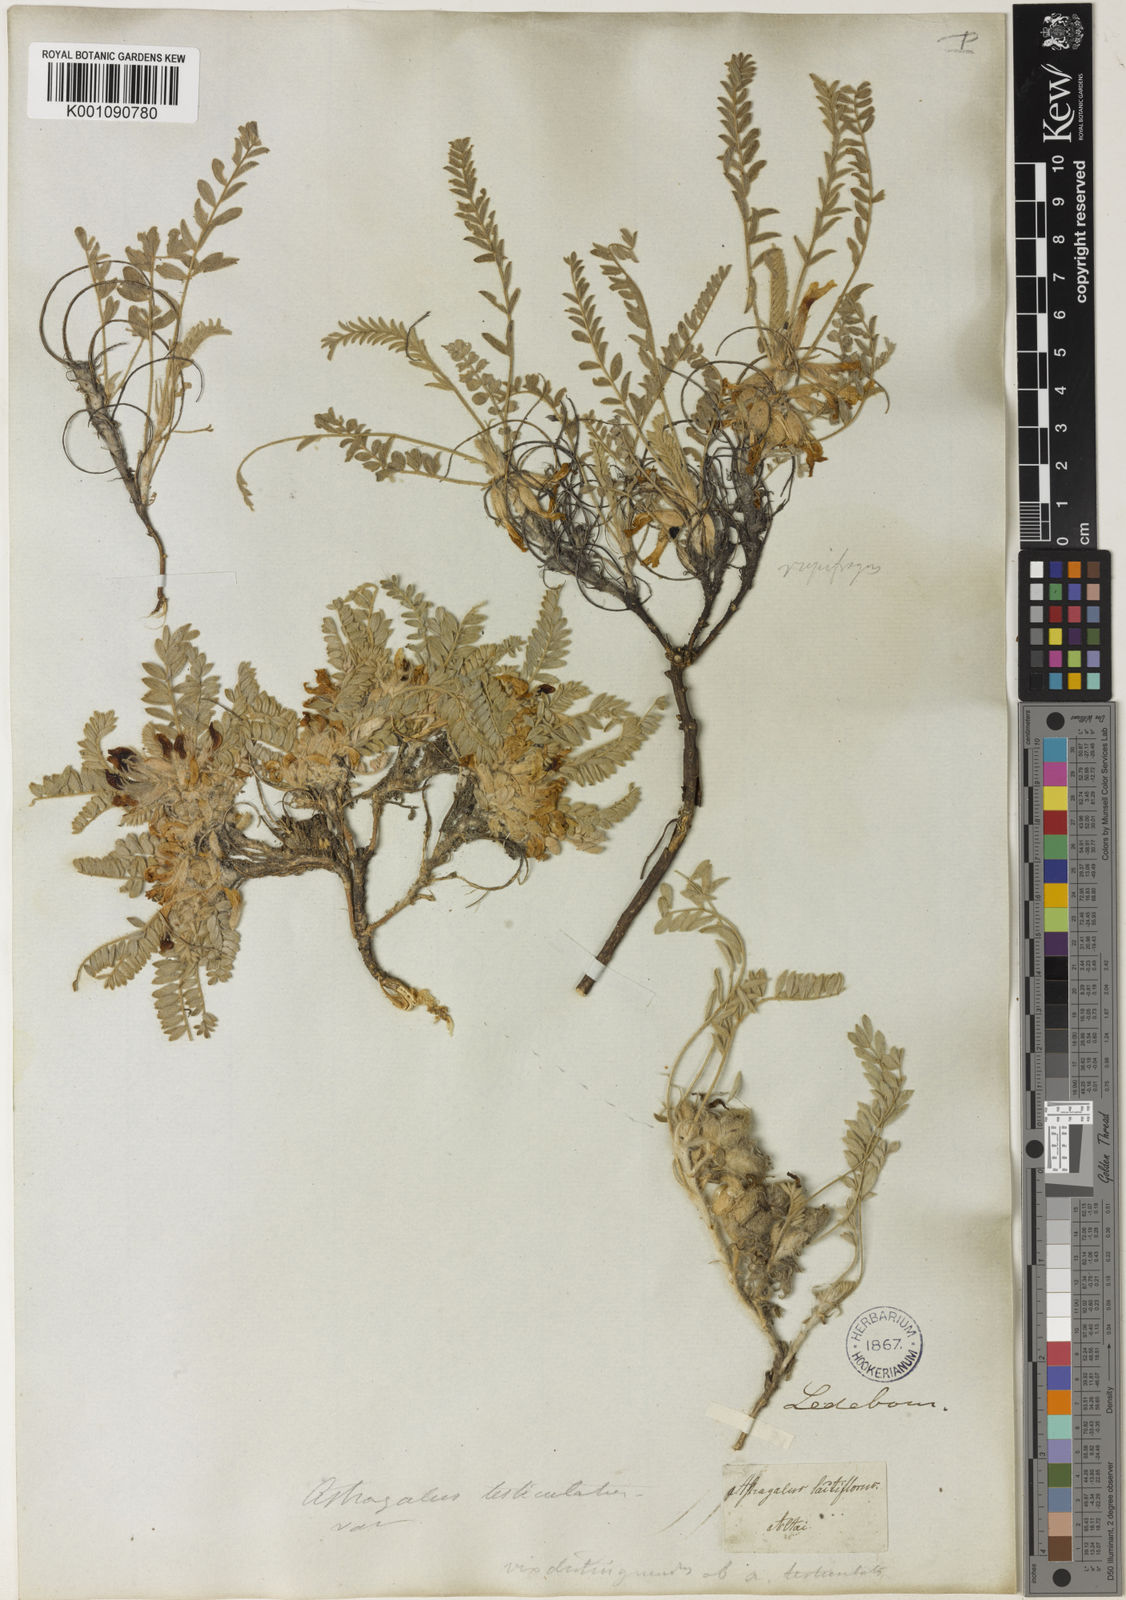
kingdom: Plantae
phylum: Tracheophyta
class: Magnoliopsida
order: Fabales
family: Fabaceae
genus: Astragalus
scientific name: Astragalus
